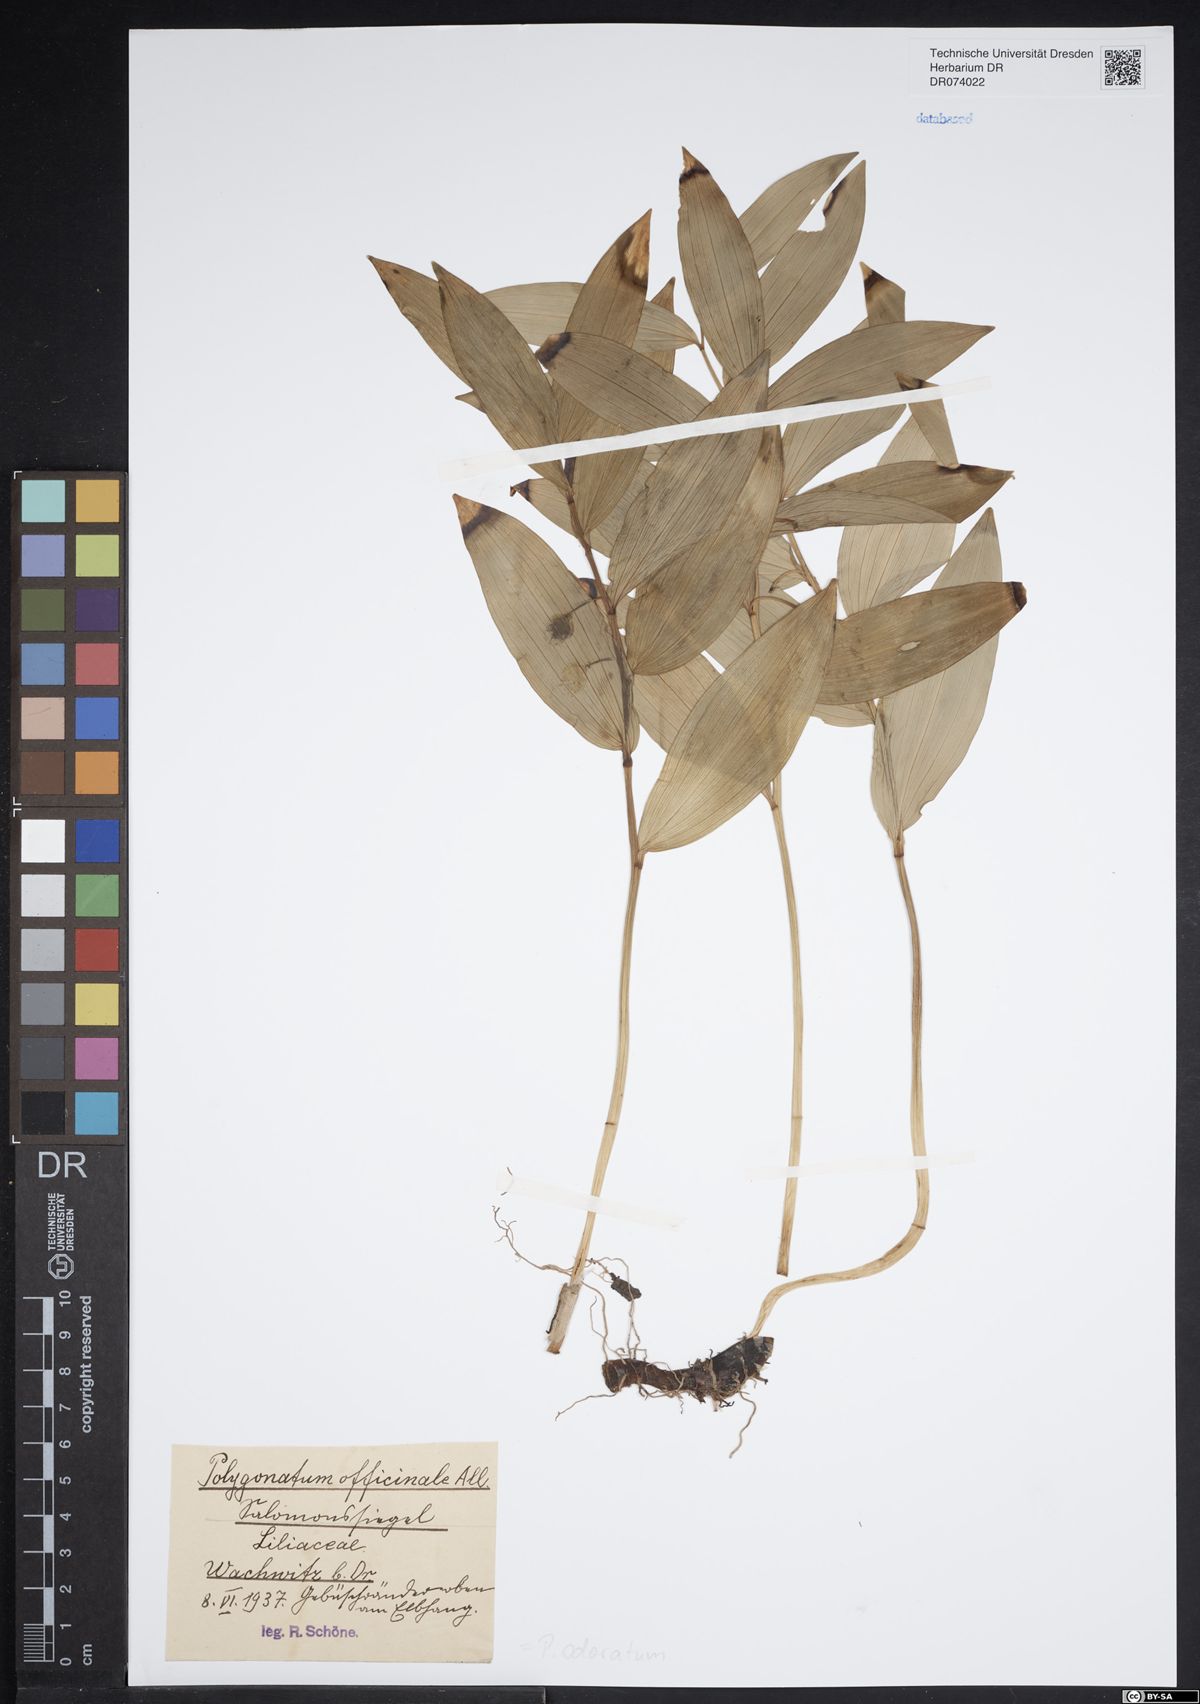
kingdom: Plantae
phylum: Tracheophyta
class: Liliopsida
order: Asparagales
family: Asparagaceae
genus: Polygonatum
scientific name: Polygonatum odoratum
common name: Angular solomon's-seal
